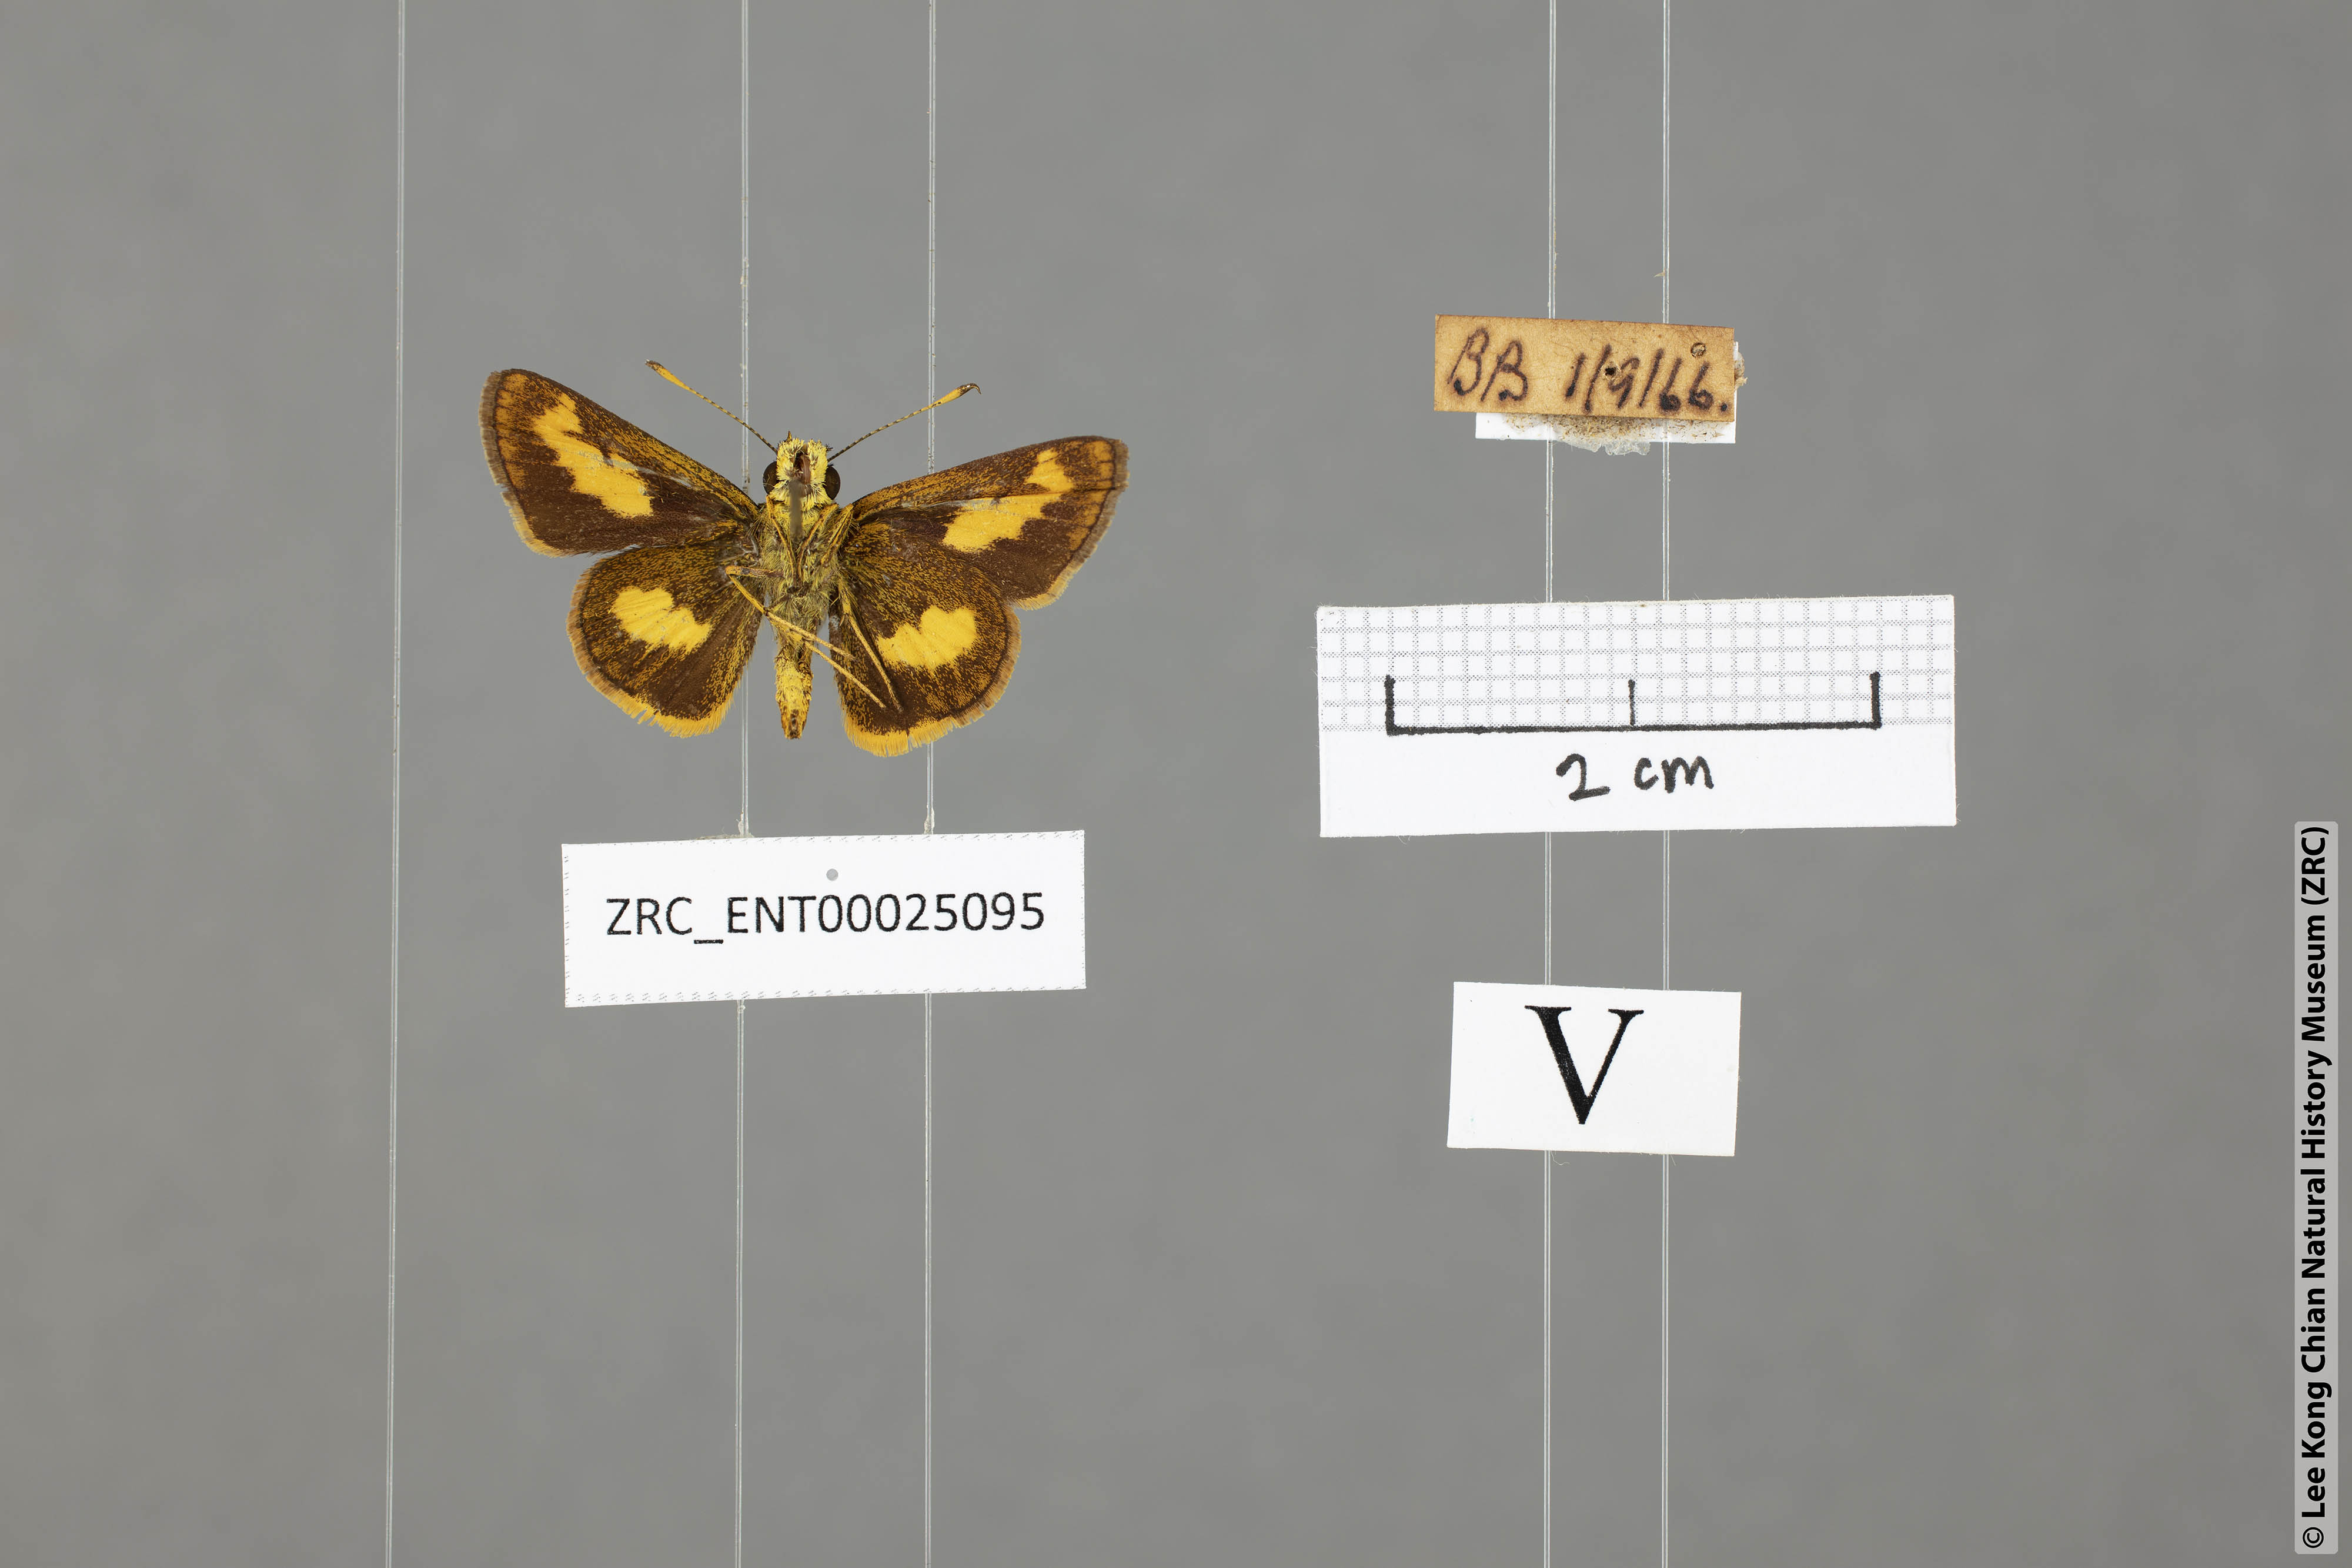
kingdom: Animalia
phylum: Arthropoda
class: Insecta
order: Lepidoptera
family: Hesperiidae
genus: Oriens
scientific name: Oriens paragola
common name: Malay dartlet
